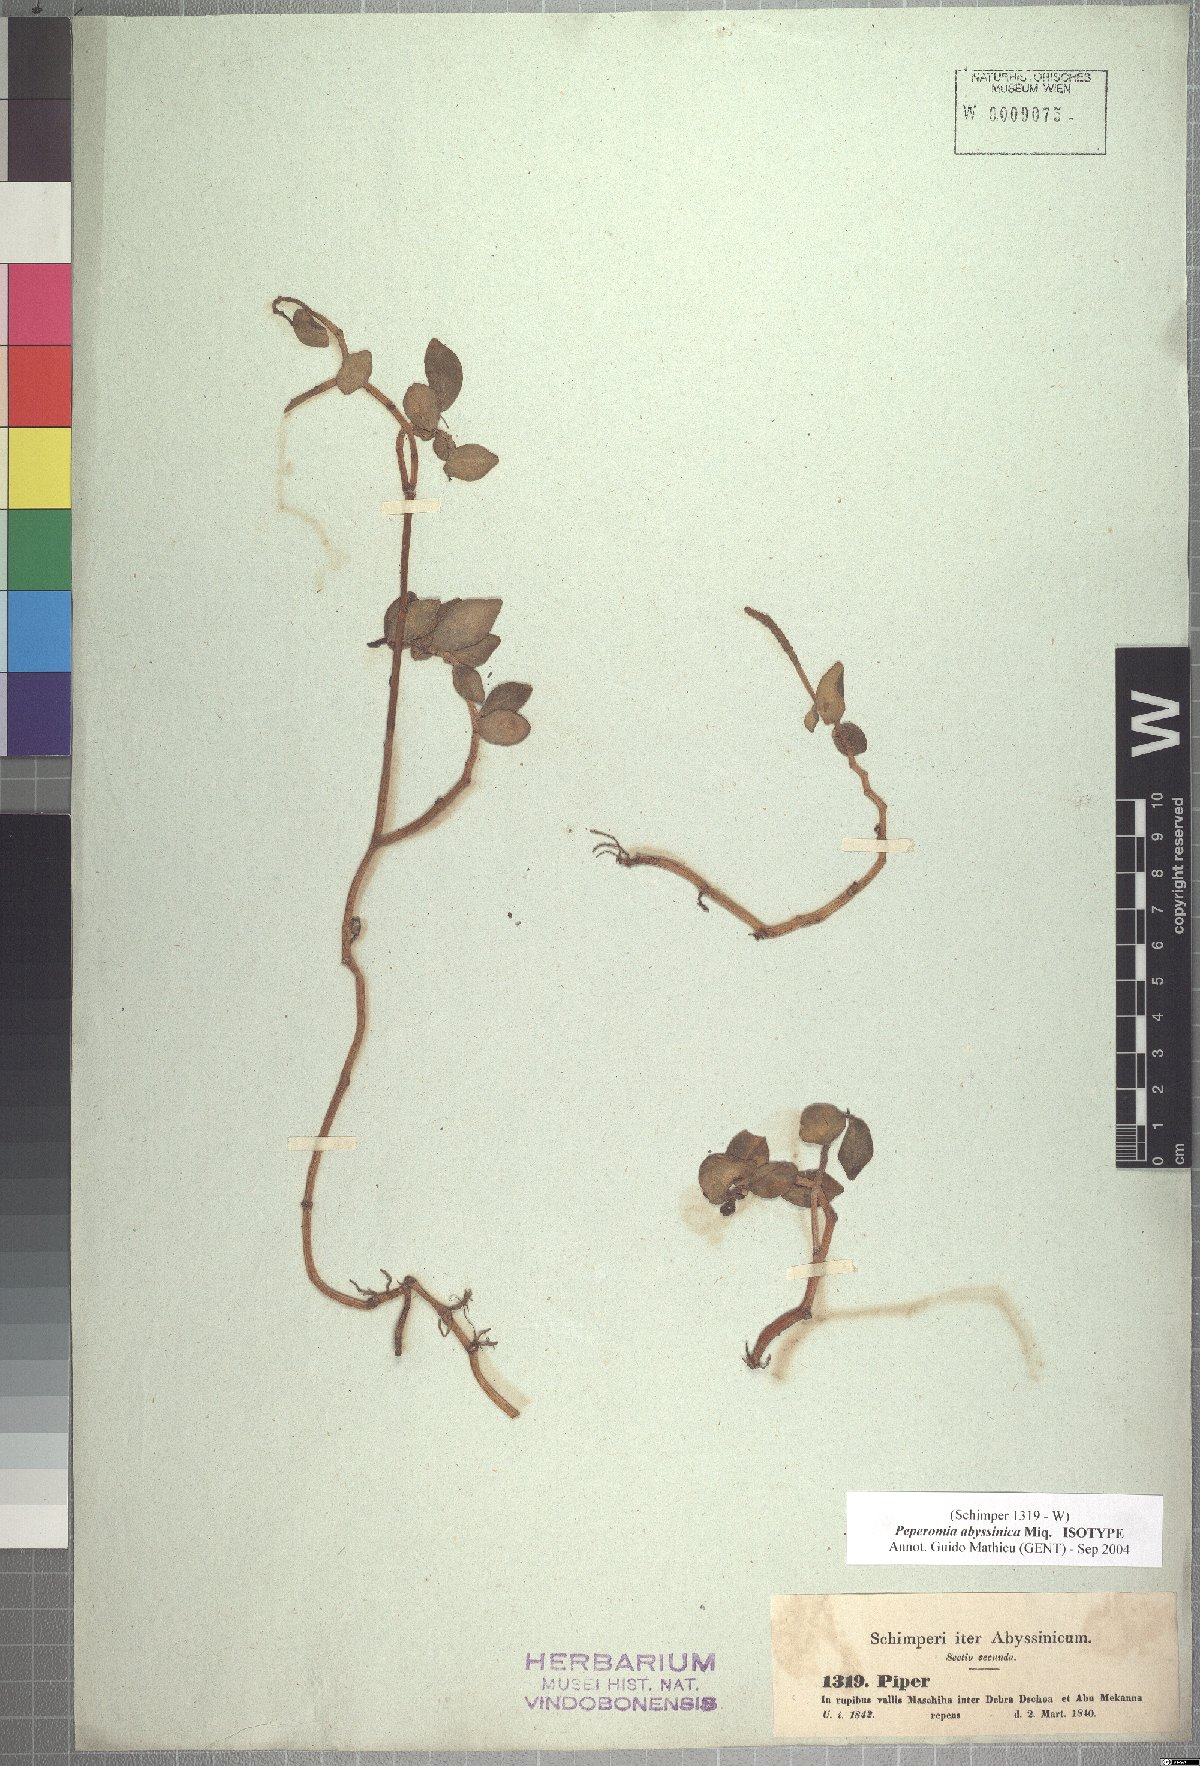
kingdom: Plantae
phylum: Tracheophyta
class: Magnoliopsida
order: Piperales
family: Piperaceae
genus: Peperomia
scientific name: Peperomia abyssinica
